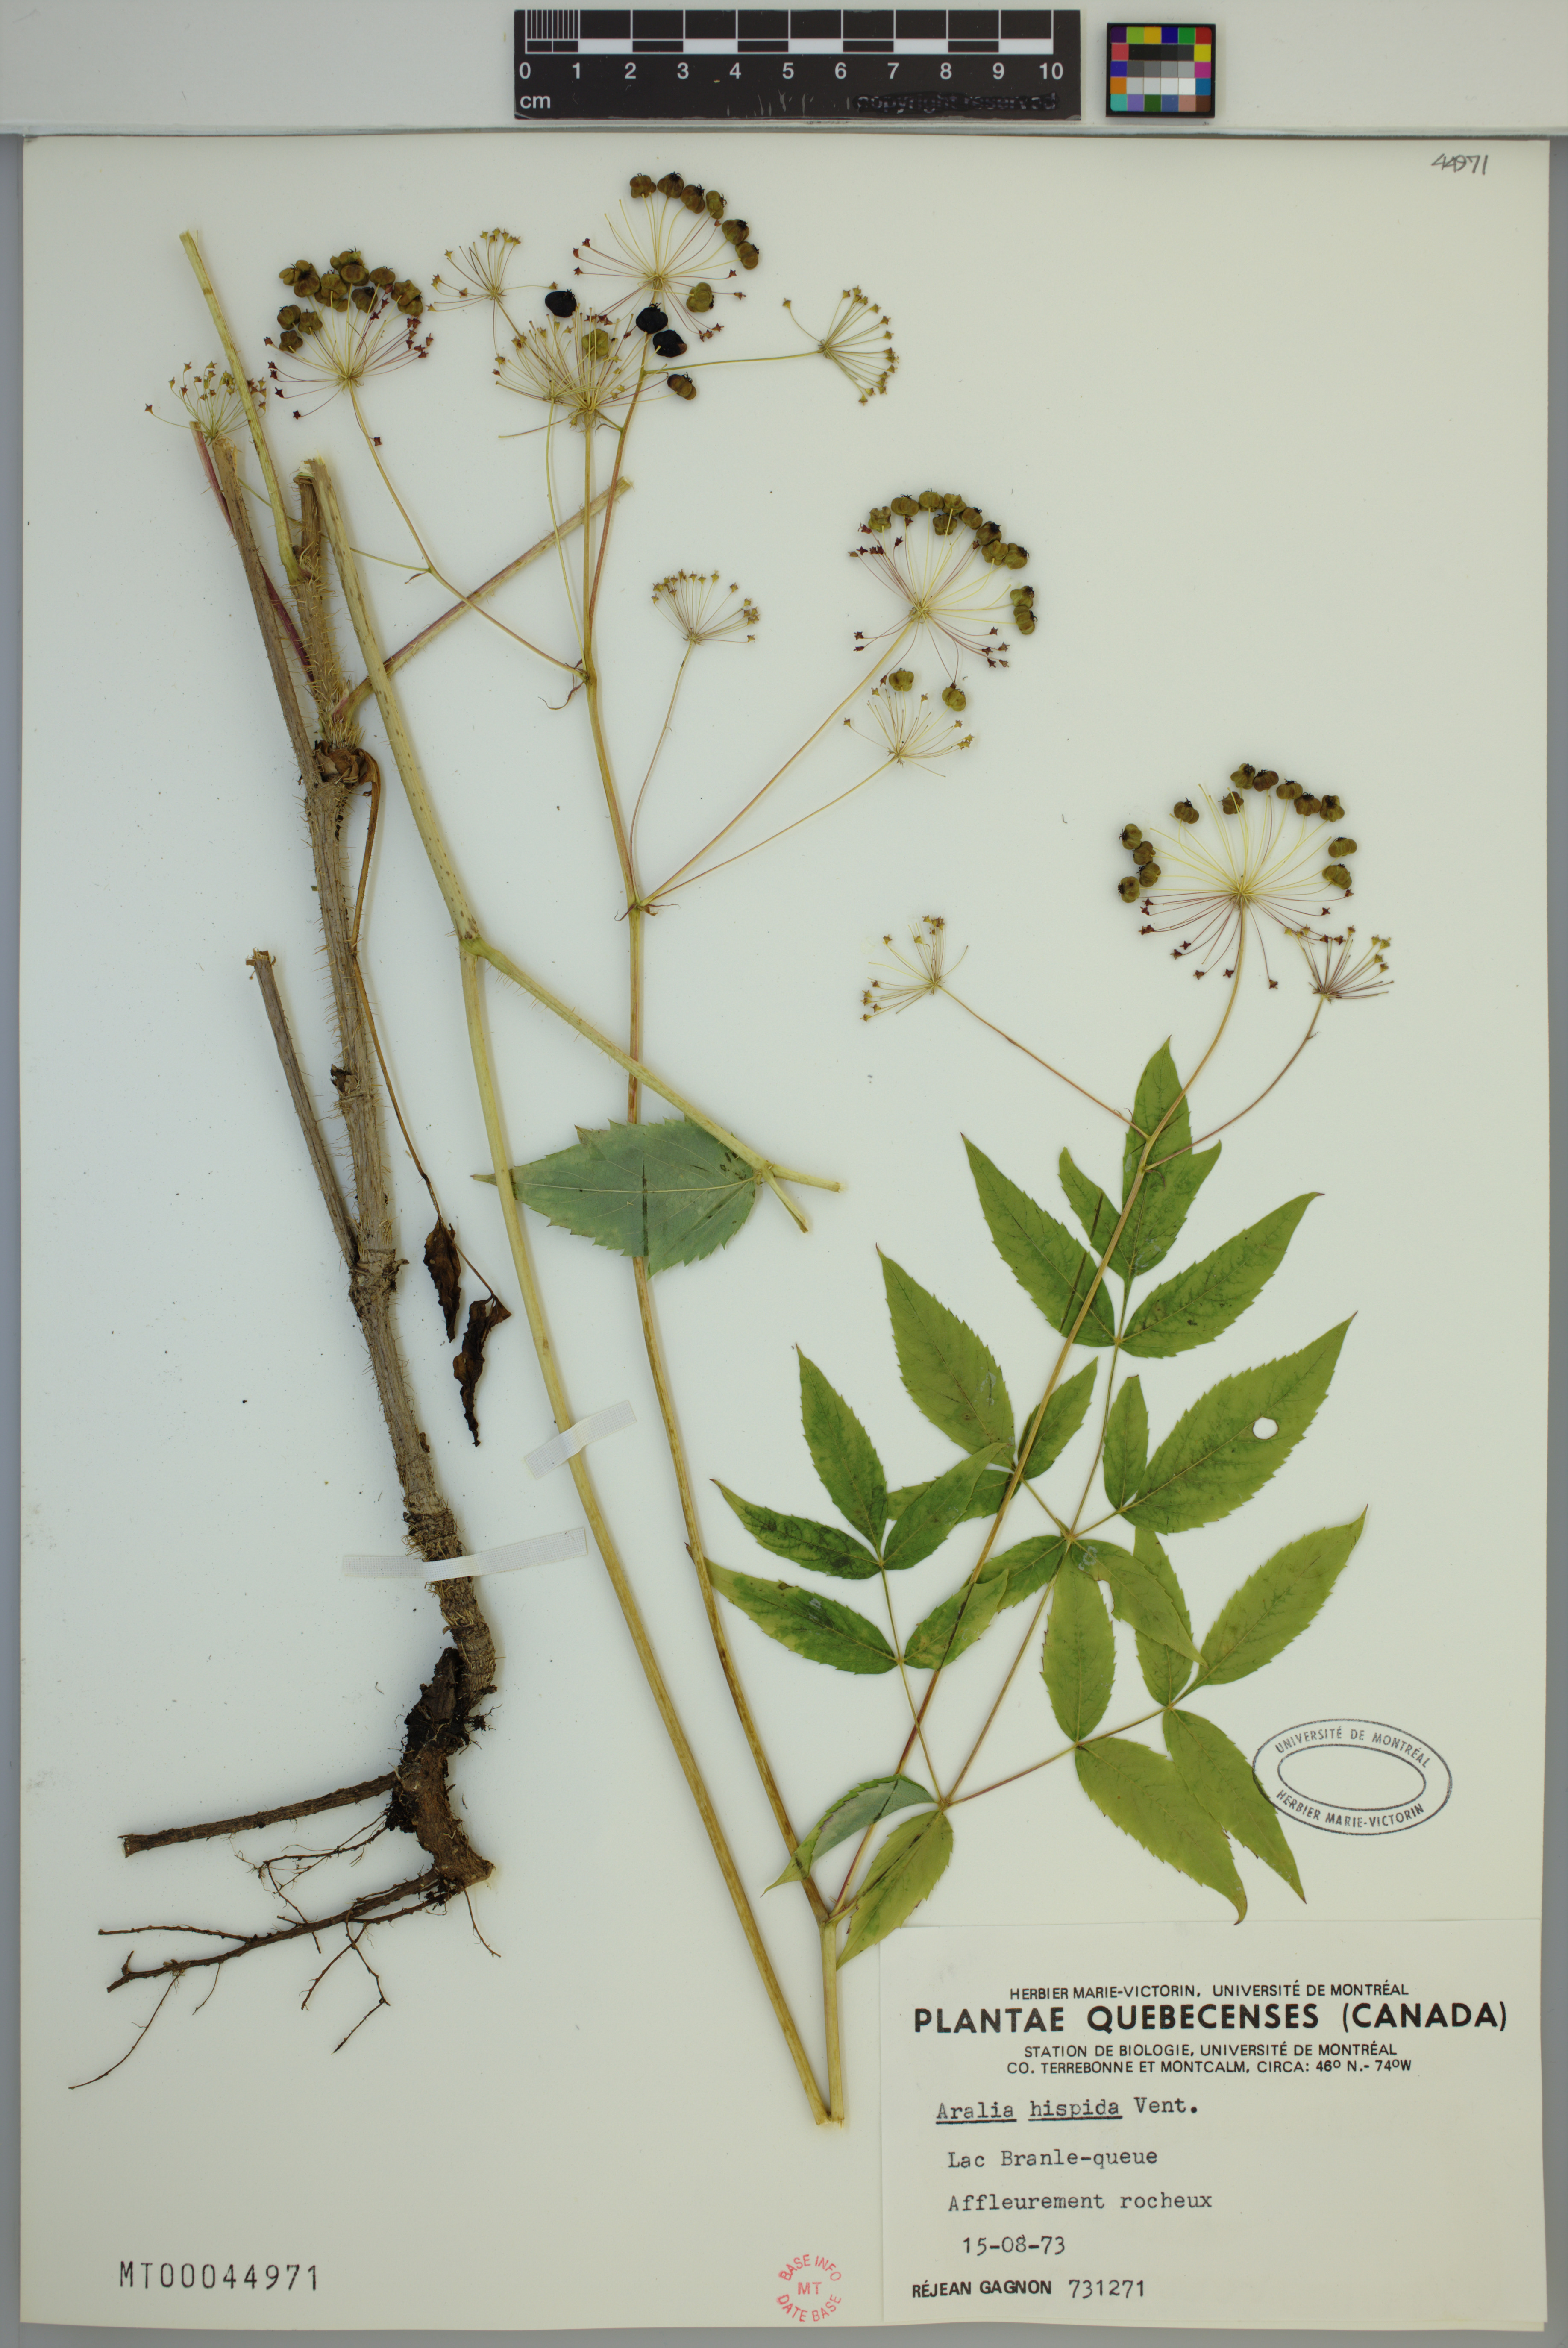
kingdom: Plantae
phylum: Tracheophyta
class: Magnoliopsida
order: Apiales
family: Araliaceae
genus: Aralia
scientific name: Aralia hispida
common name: Bristly sarsaparilla
